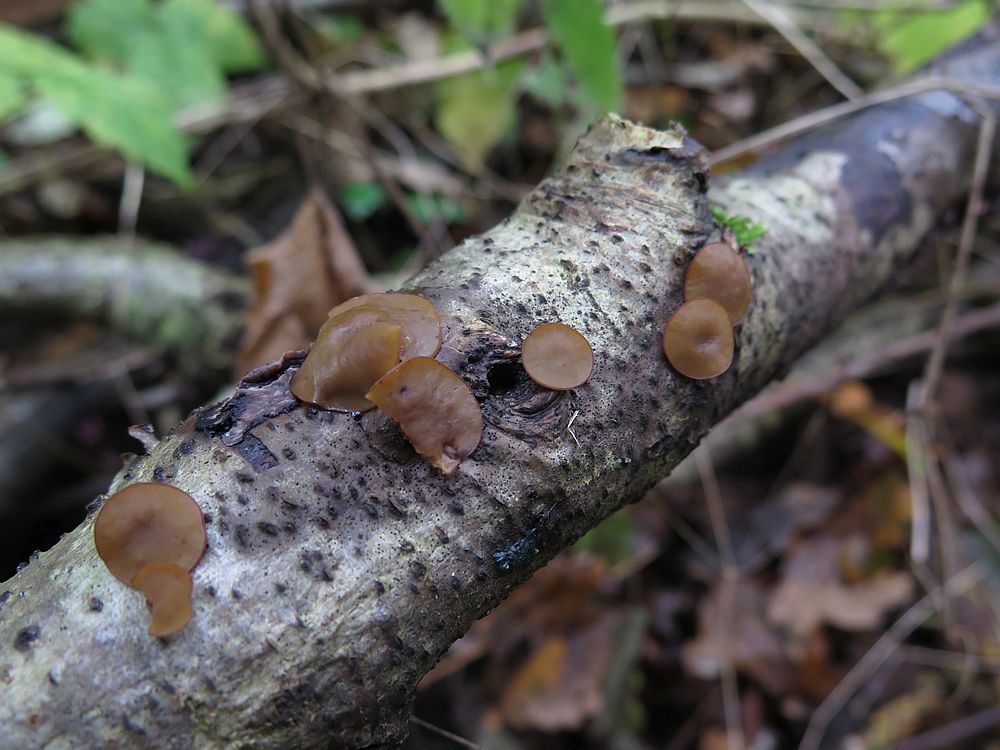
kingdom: Fungi
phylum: Ascomycota
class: Leotiomycetes
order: Helotiales
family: Rutstroemiaceae
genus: Rutstroemia
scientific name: Rutstroemia firma
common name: gren-brunskive
